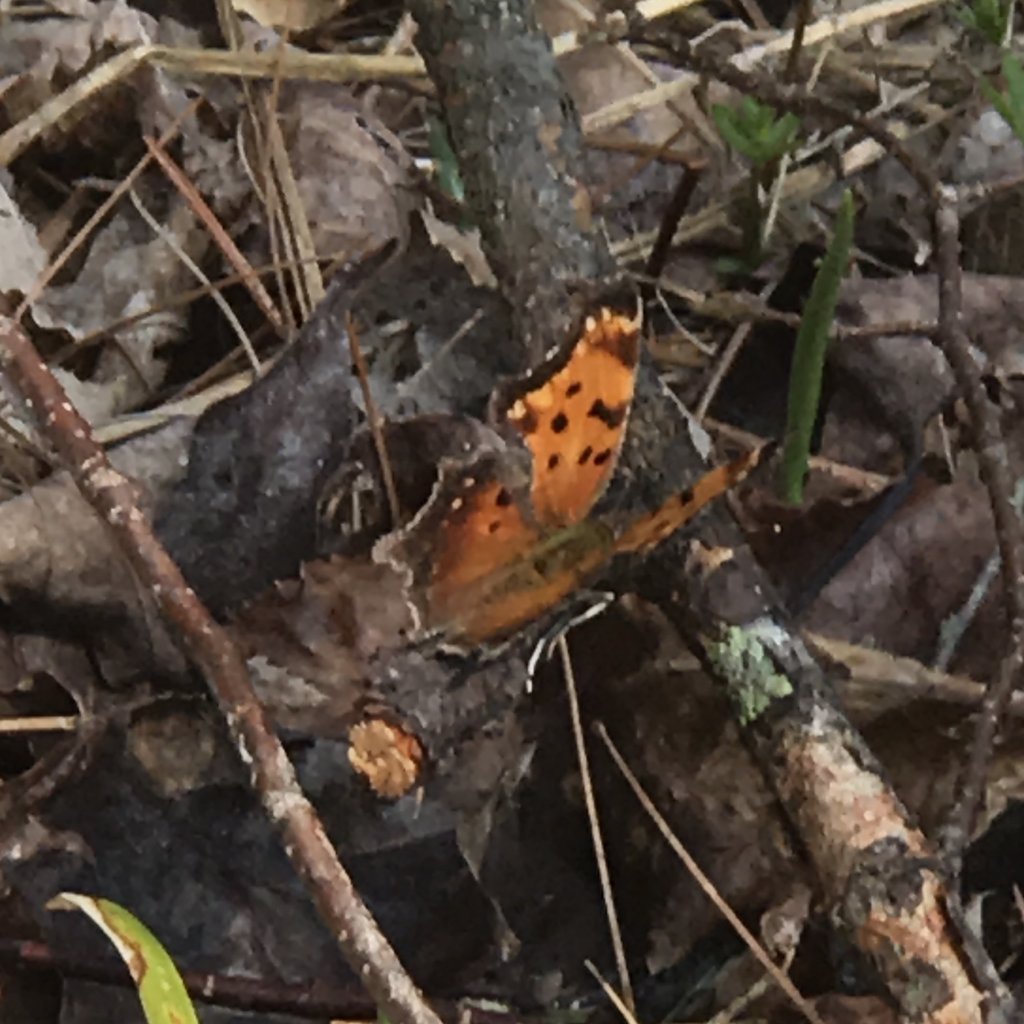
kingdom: Animalia
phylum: Arthropoda
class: Insecta
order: Lepidoptera
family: Nymphalidae
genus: Polygonia
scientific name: Polygonia progne
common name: Gray Comma
